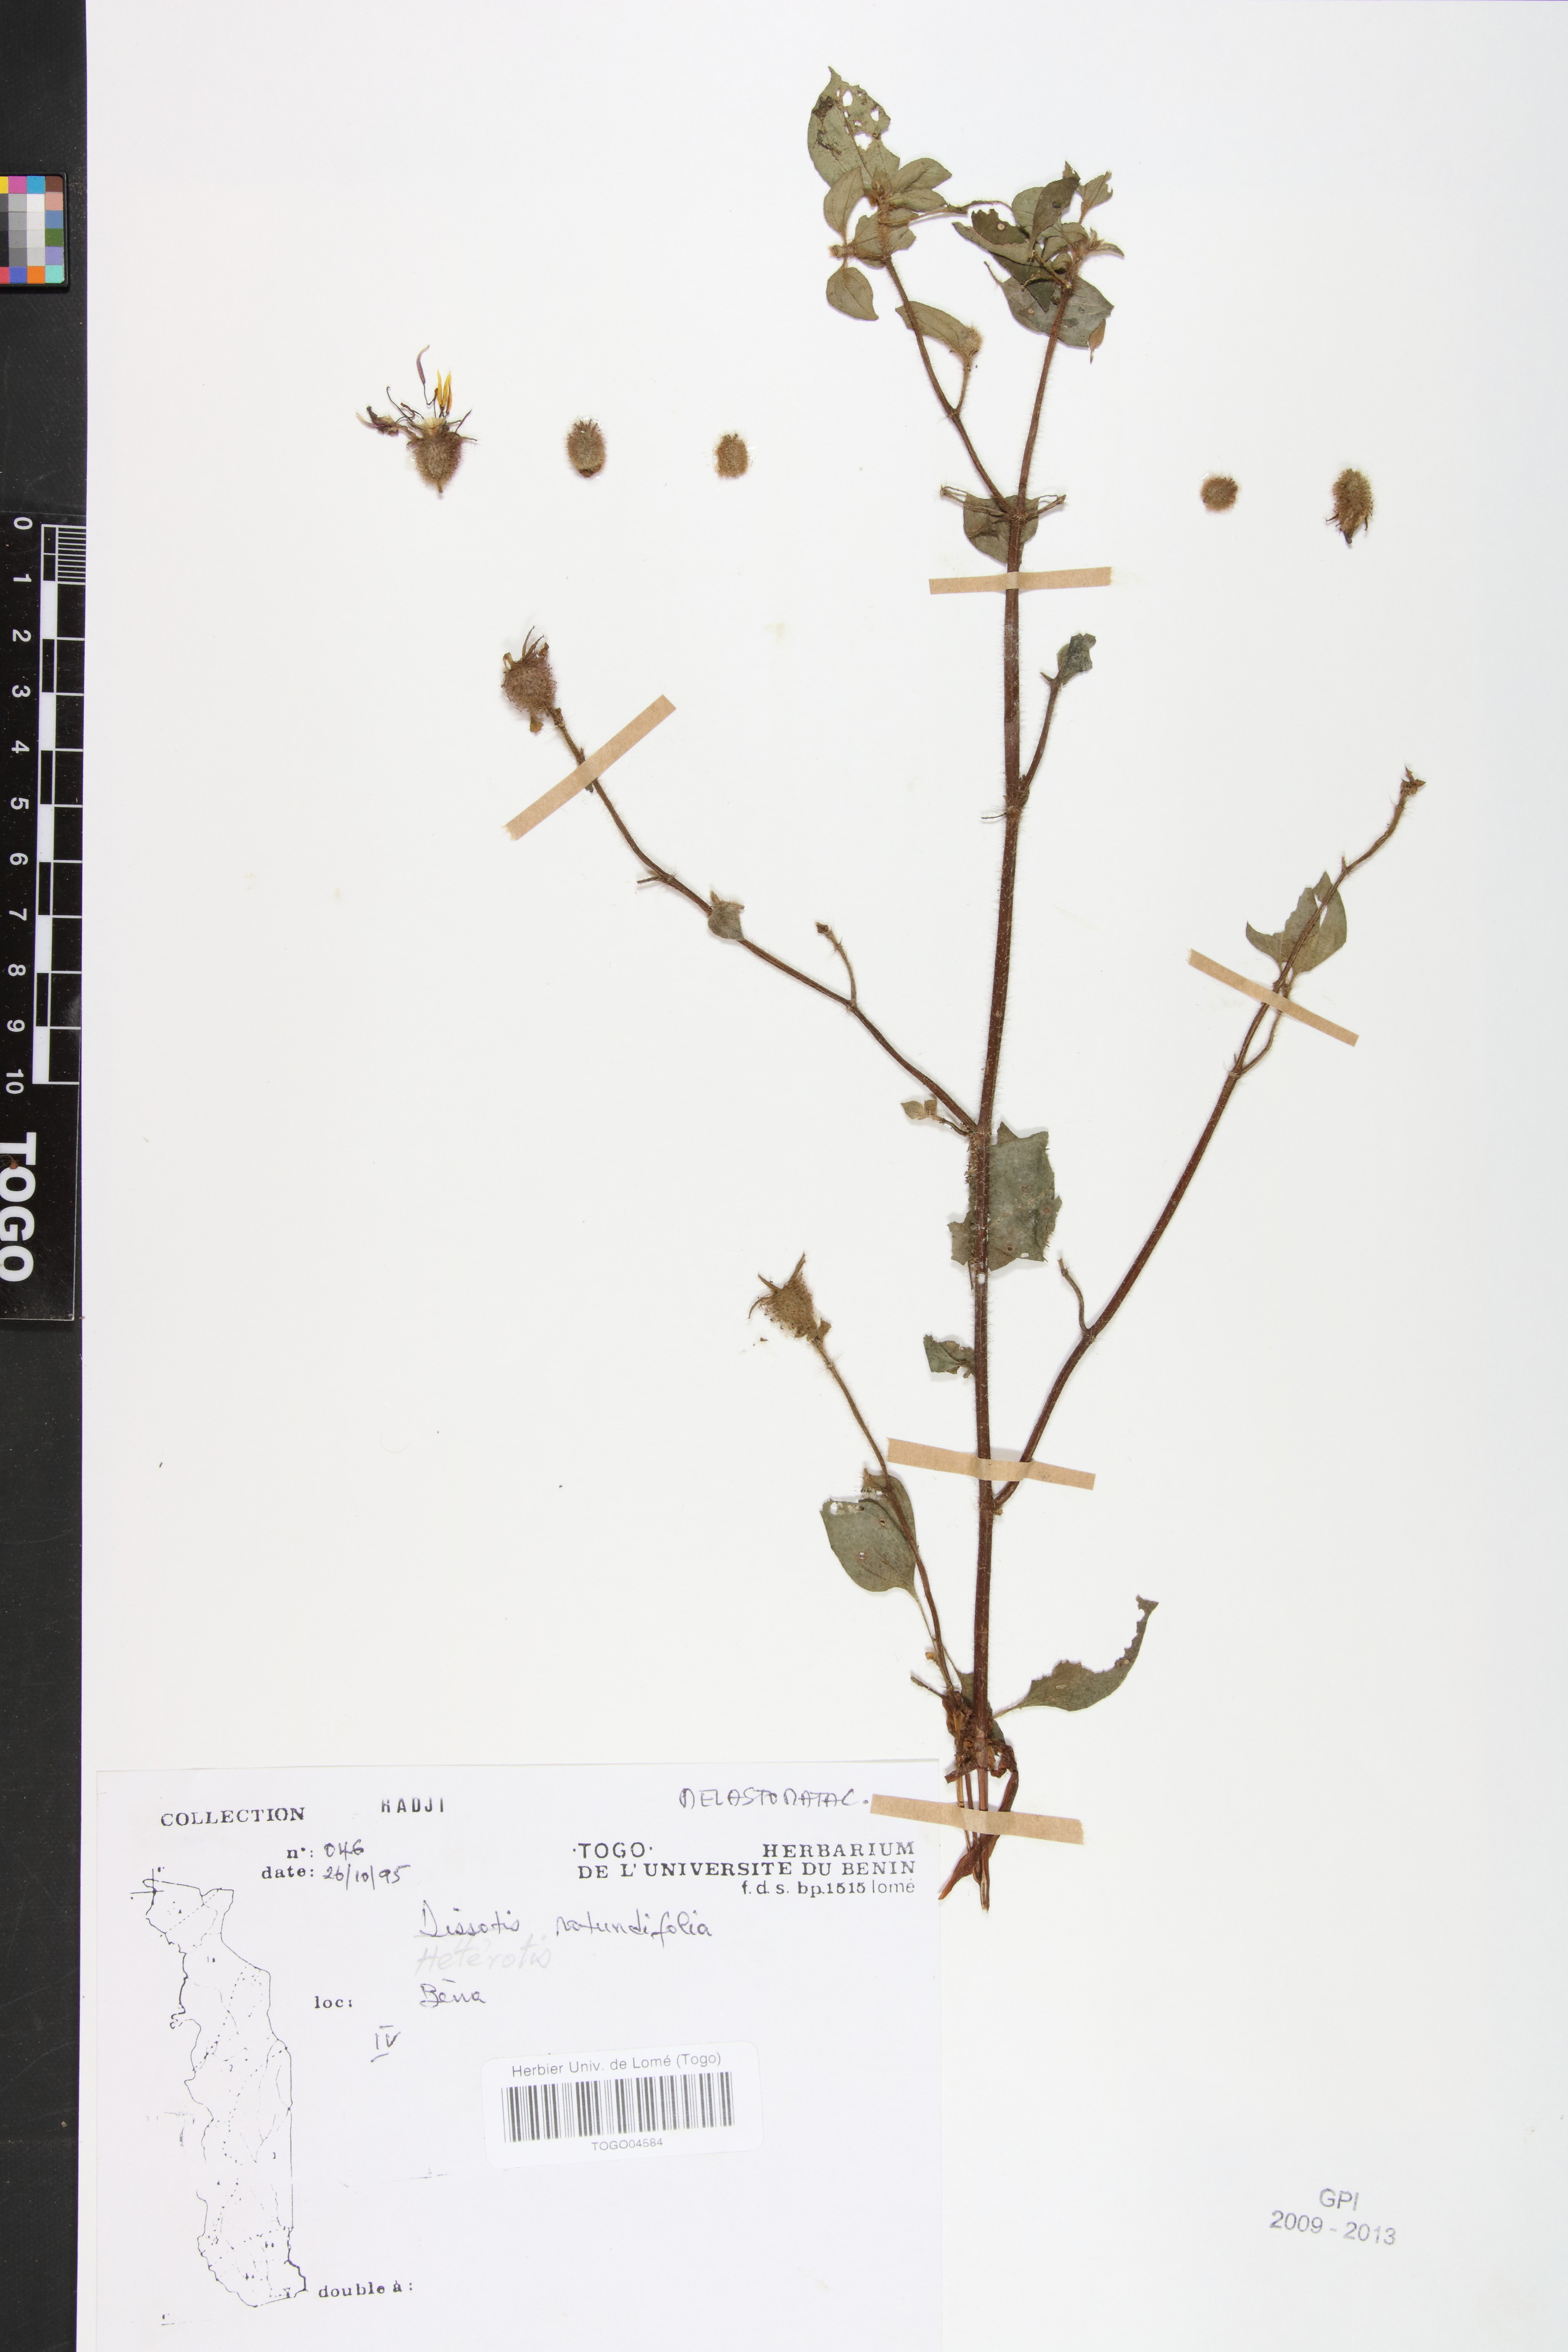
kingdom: Plantae
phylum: Tracheophyta
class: Magnoliopsida
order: Myrtales
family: Melastomataceae
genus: Heterotis
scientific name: Heterotis prostrata
